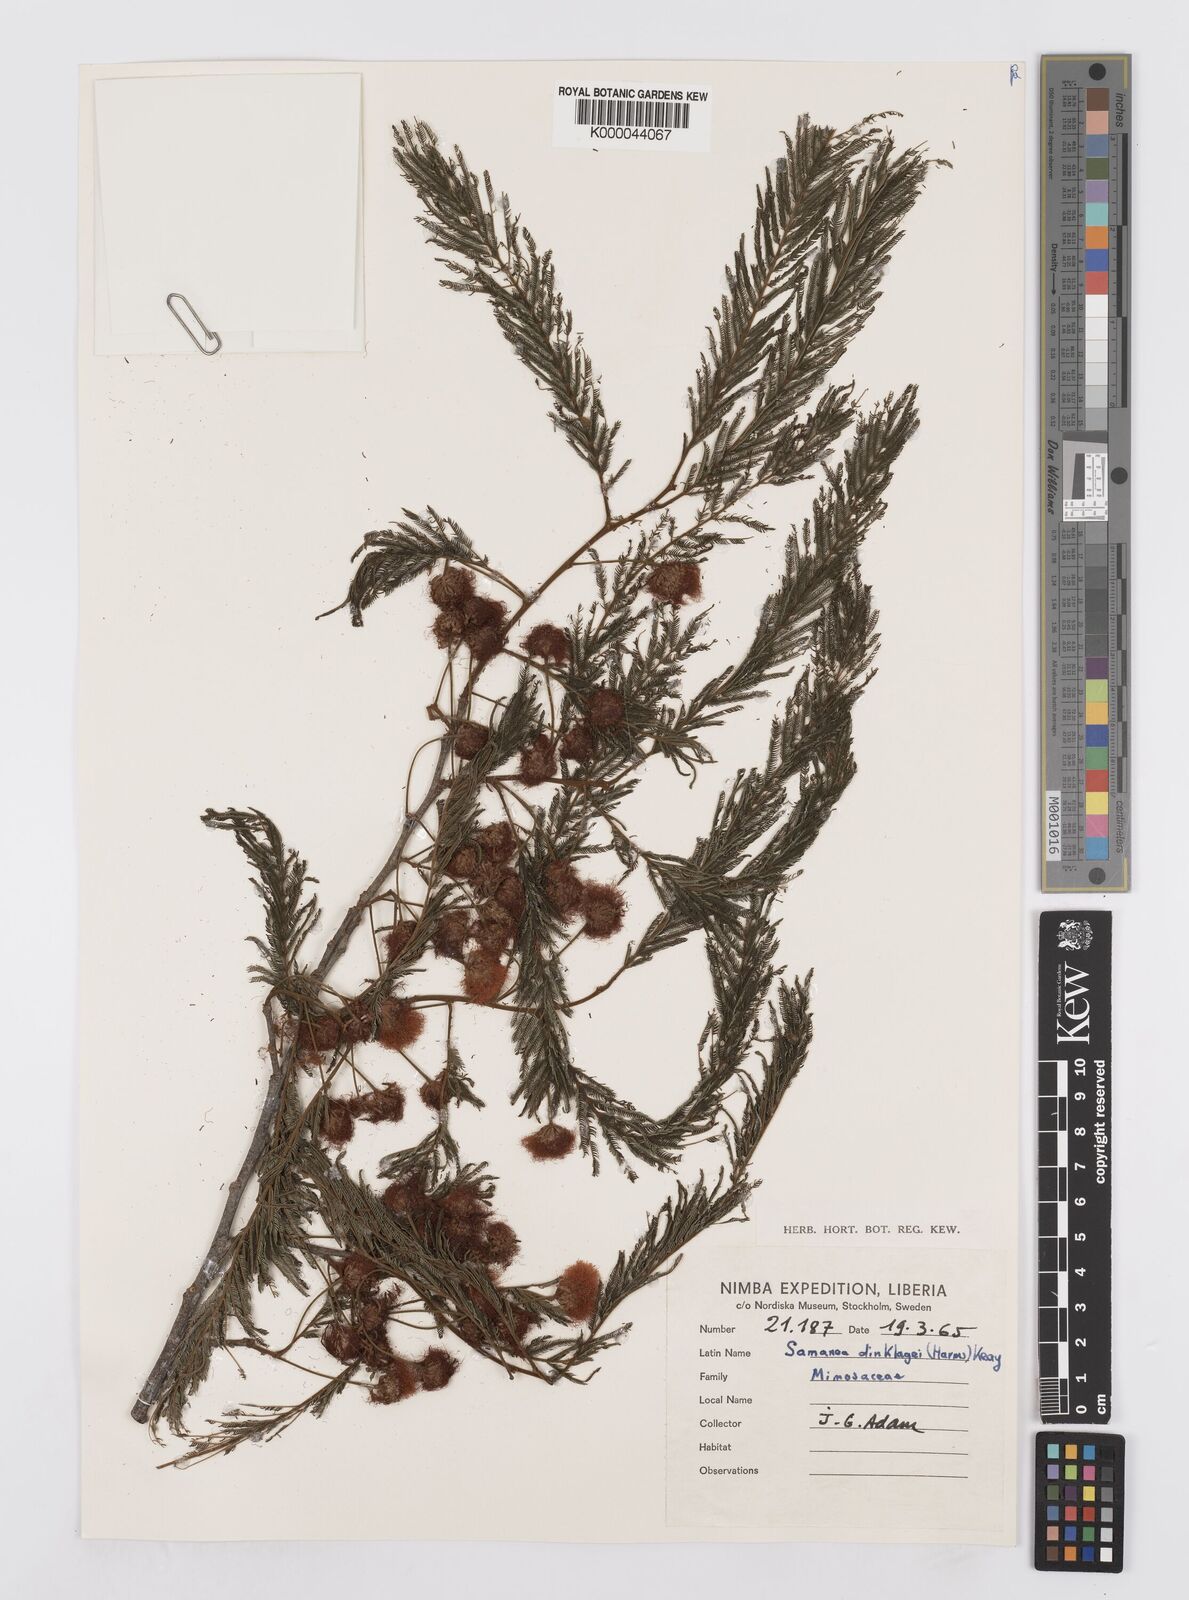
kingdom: Plantae
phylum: Tracheophyta
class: Magnoliopsida
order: Fabales
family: Fabaceae
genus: Albizia
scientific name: Albizia dinklagei
